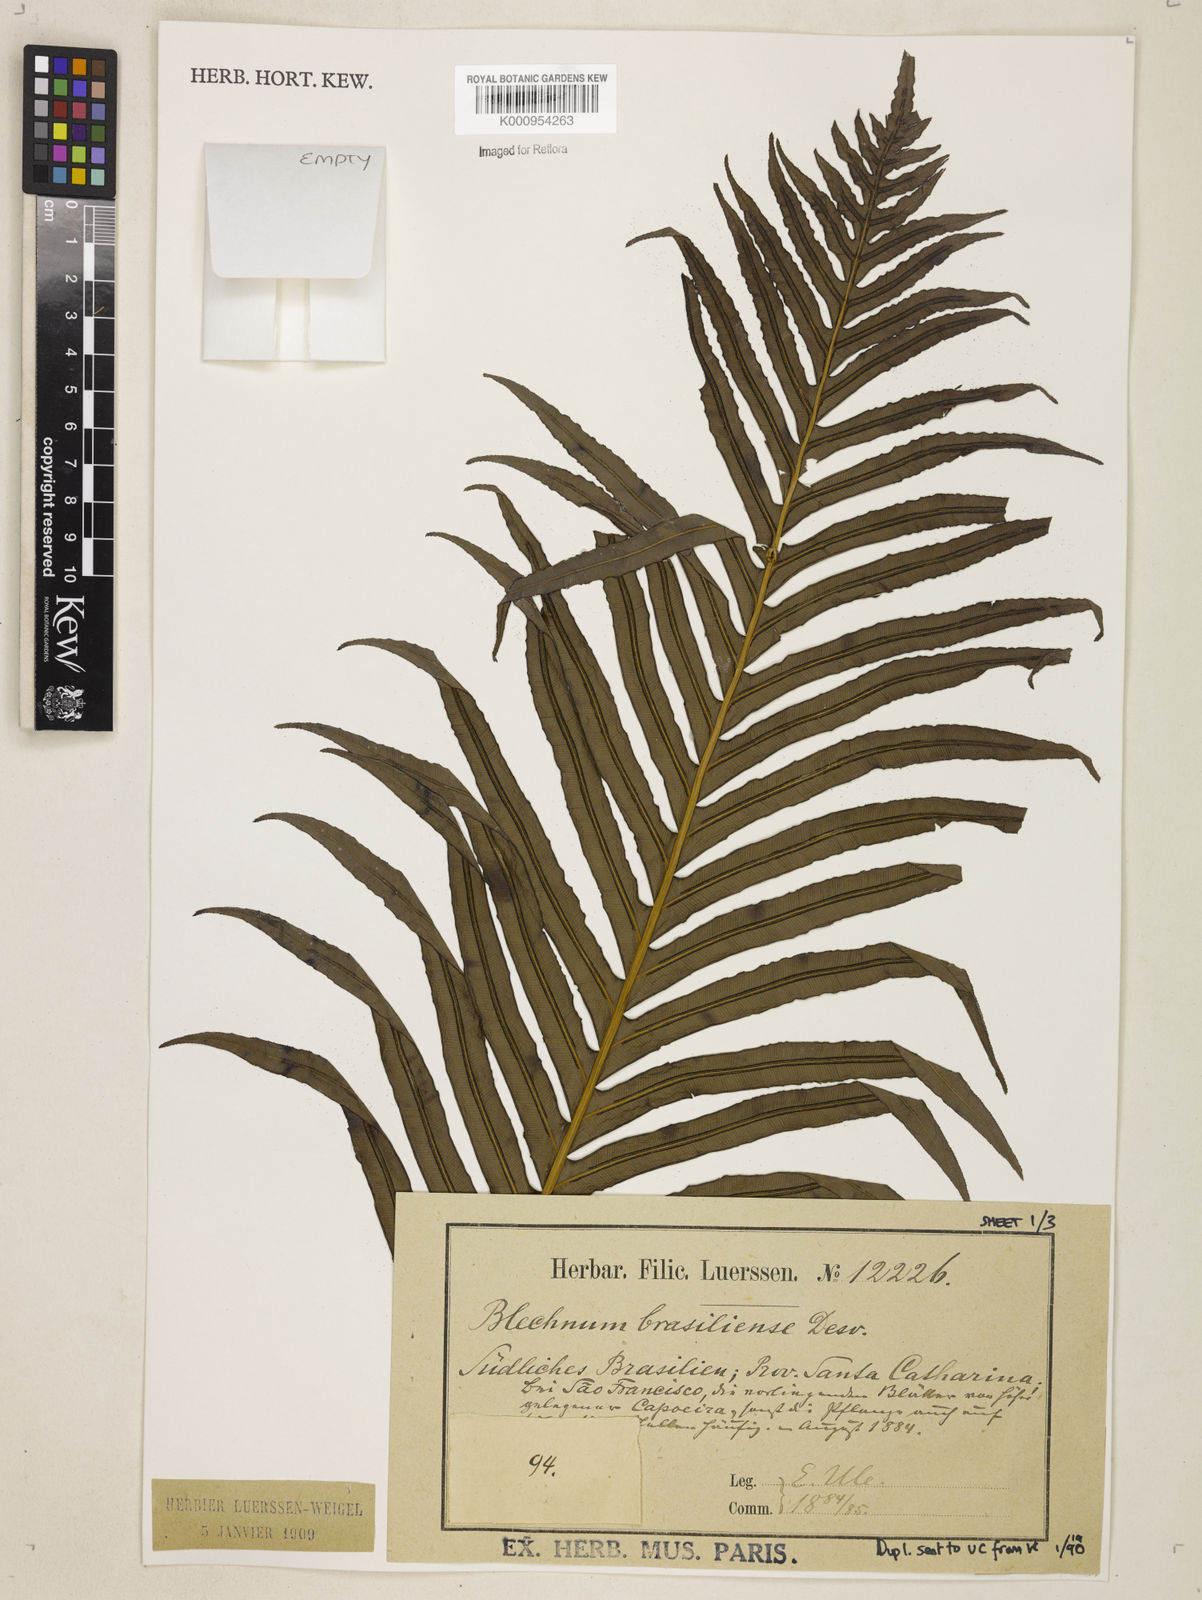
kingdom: Plantae
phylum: Tracheophyta
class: Polypodiopsida
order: Polypodiales
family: Blechnaceae
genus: Neoblechnum
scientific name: Neoblechnum brasiliense
